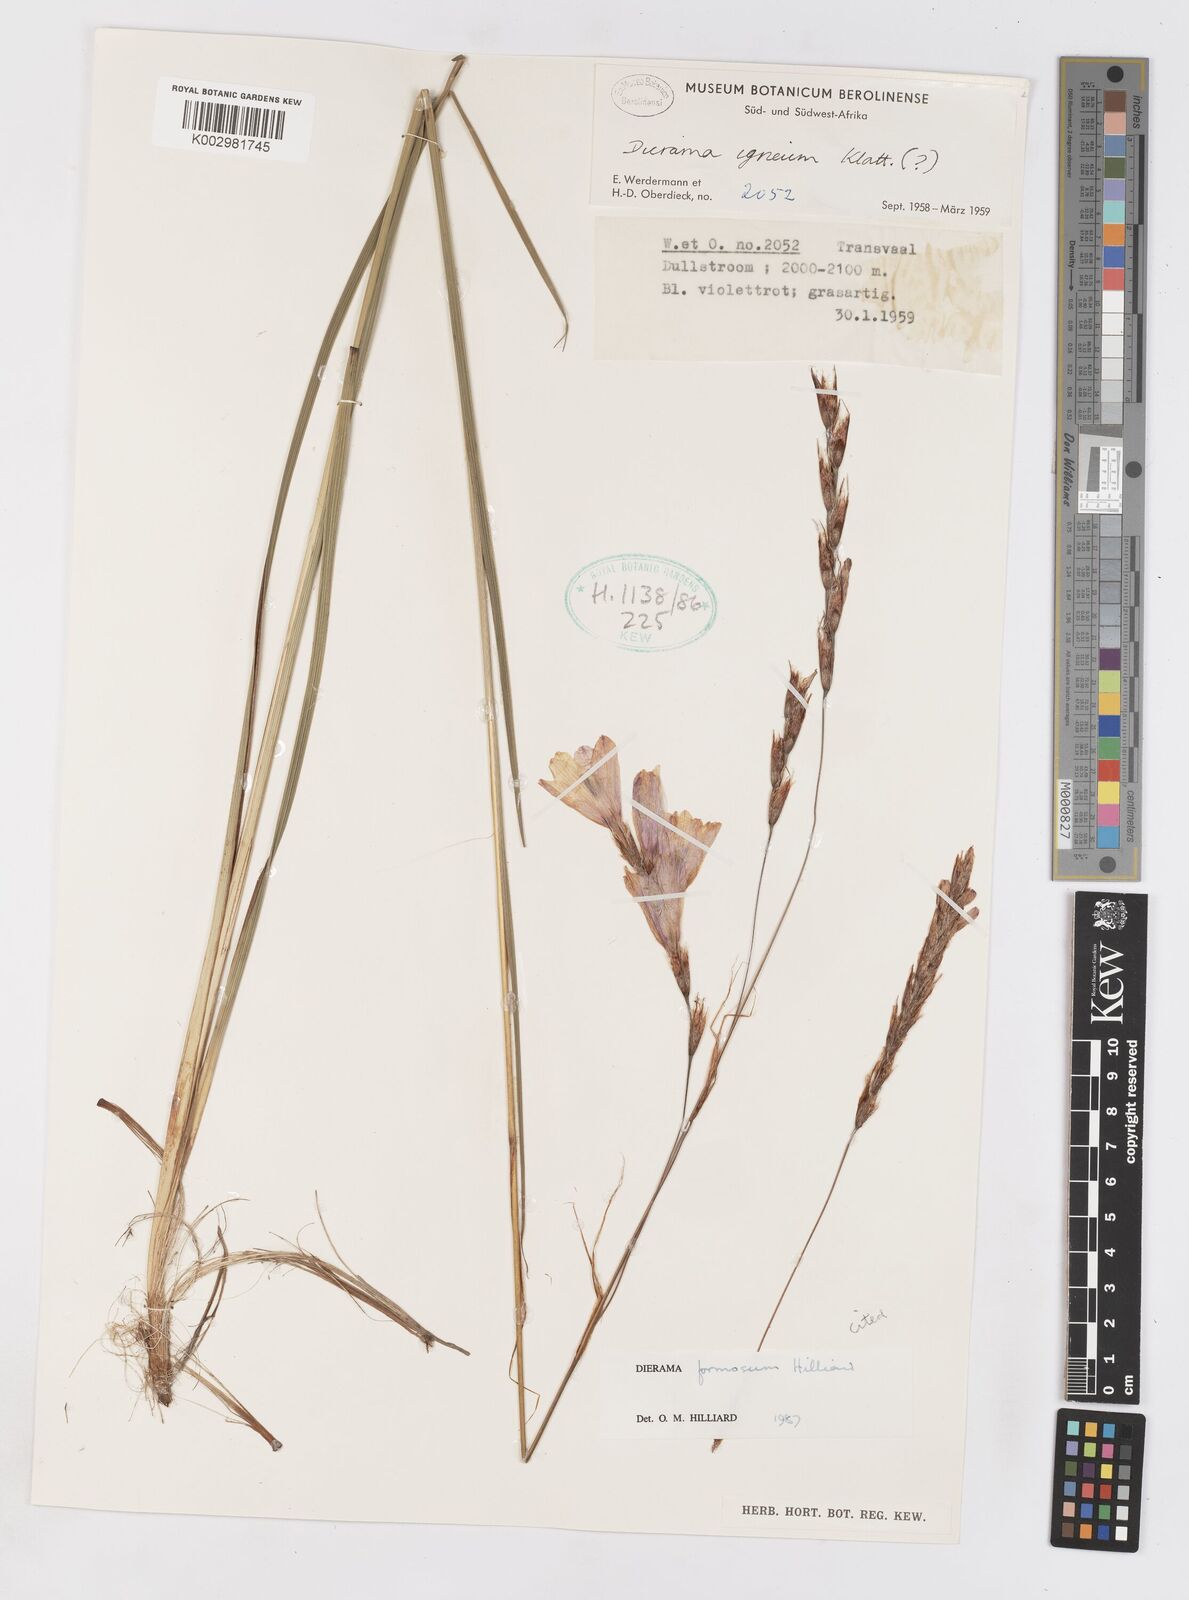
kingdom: Plantae
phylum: Tracheophyta
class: Liliopsida
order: Asparagales
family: Iridaceae
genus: Dierama
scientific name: Dierama formosum
